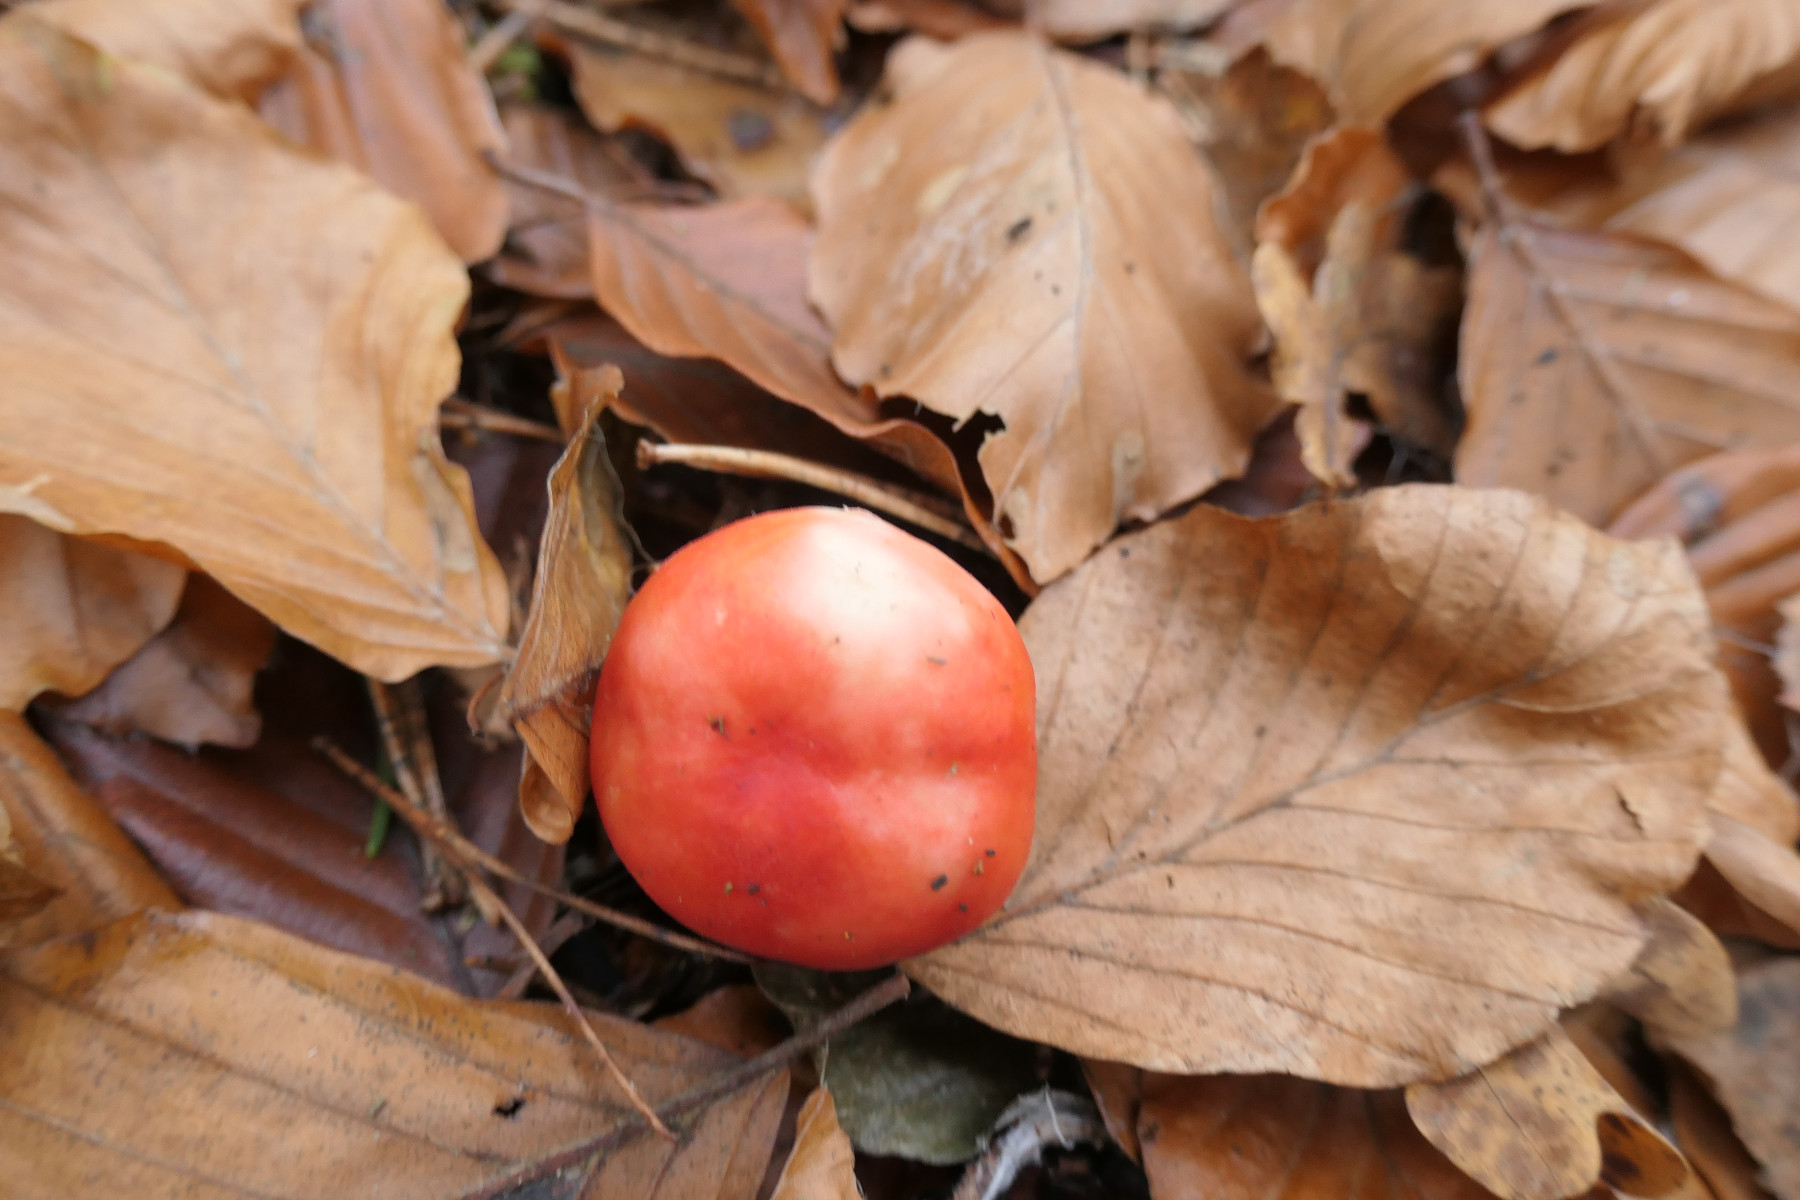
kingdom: Fungi
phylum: Basidiomycota
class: Agaricomycetes
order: Russulales
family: Russulaceae
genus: Russula
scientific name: Russula nobilis
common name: lille gift-skørhat
